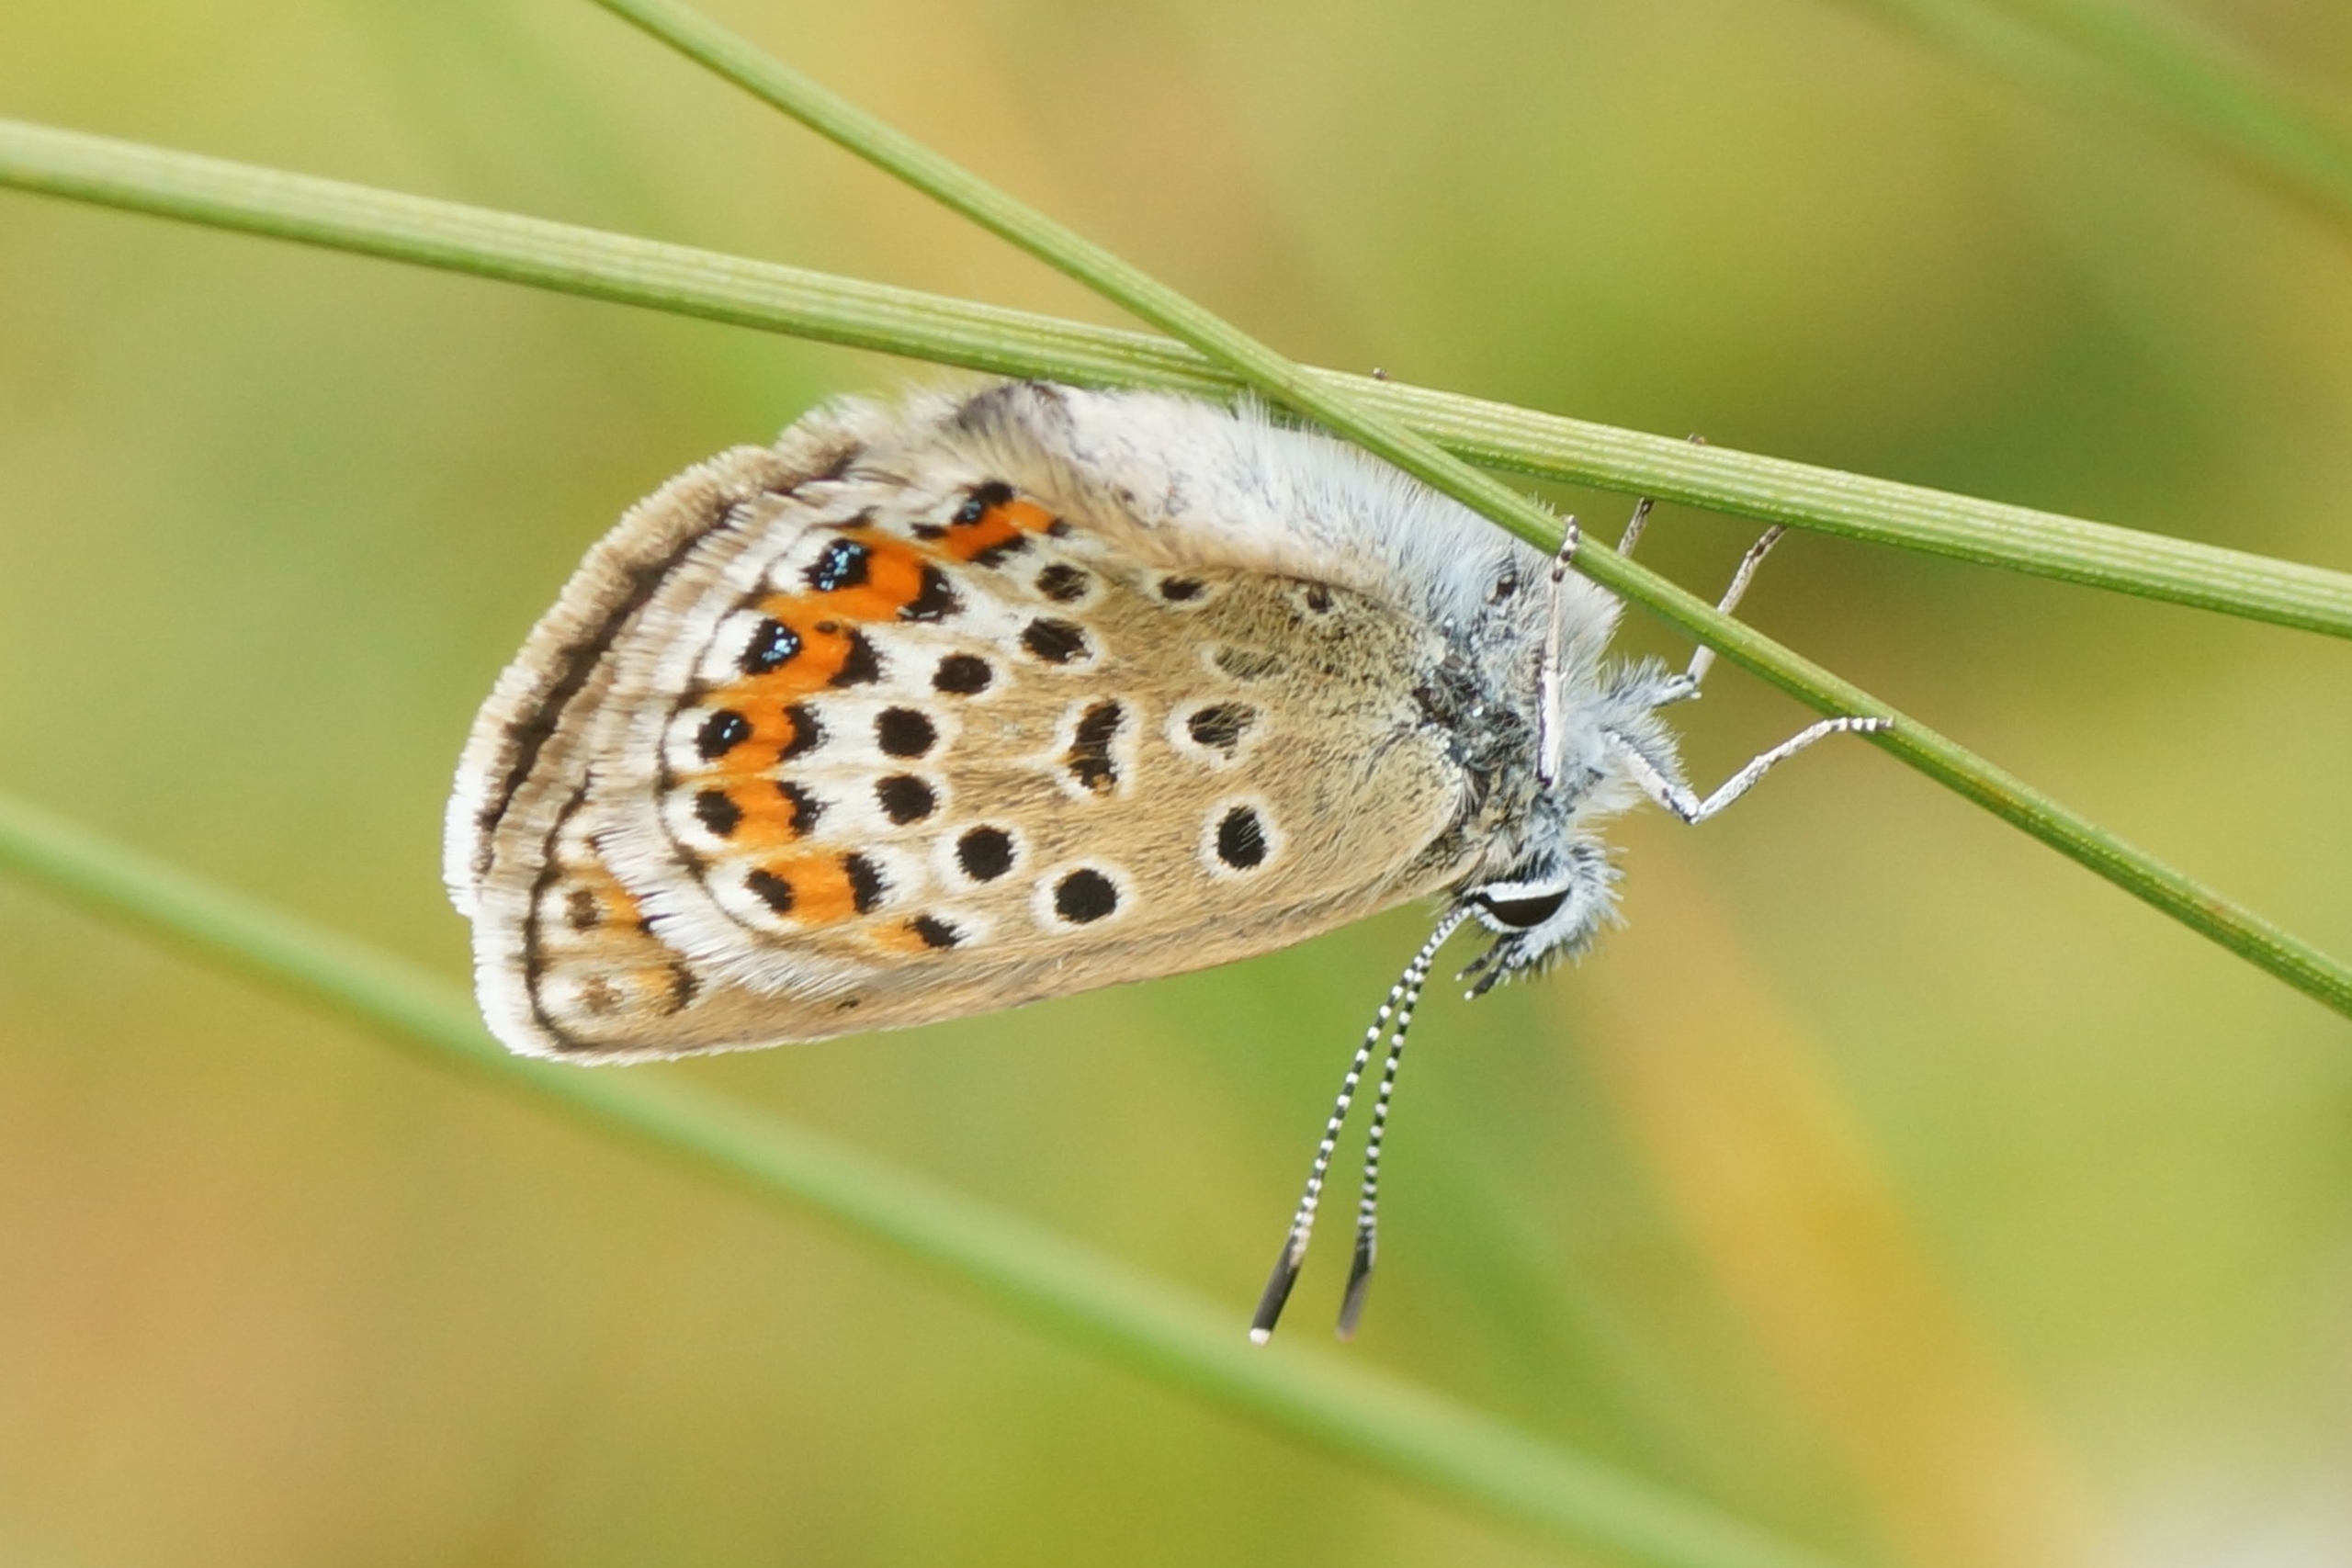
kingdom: Animalia
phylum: Arthropoda
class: Insecta
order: Lepidoptera
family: Lycaenidae
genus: Lycaeides
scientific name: Lycaeides idas
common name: Foranderlig blåfugl
